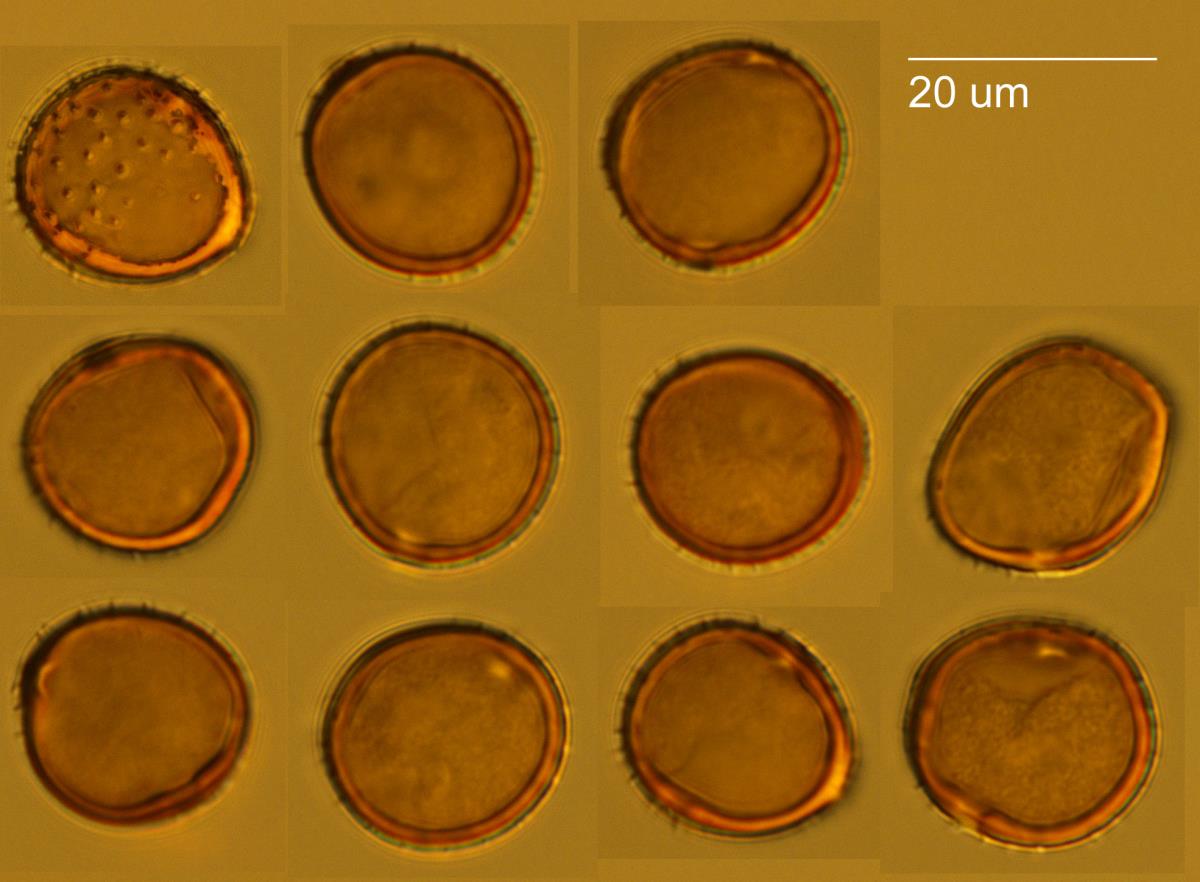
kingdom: Fungi
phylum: Basidiomycota
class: Pucciniomycetes
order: Pucciniales
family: Pucciniaceae
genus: Puccinia
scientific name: Puccinia lapsanae
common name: Nipplewort rust
